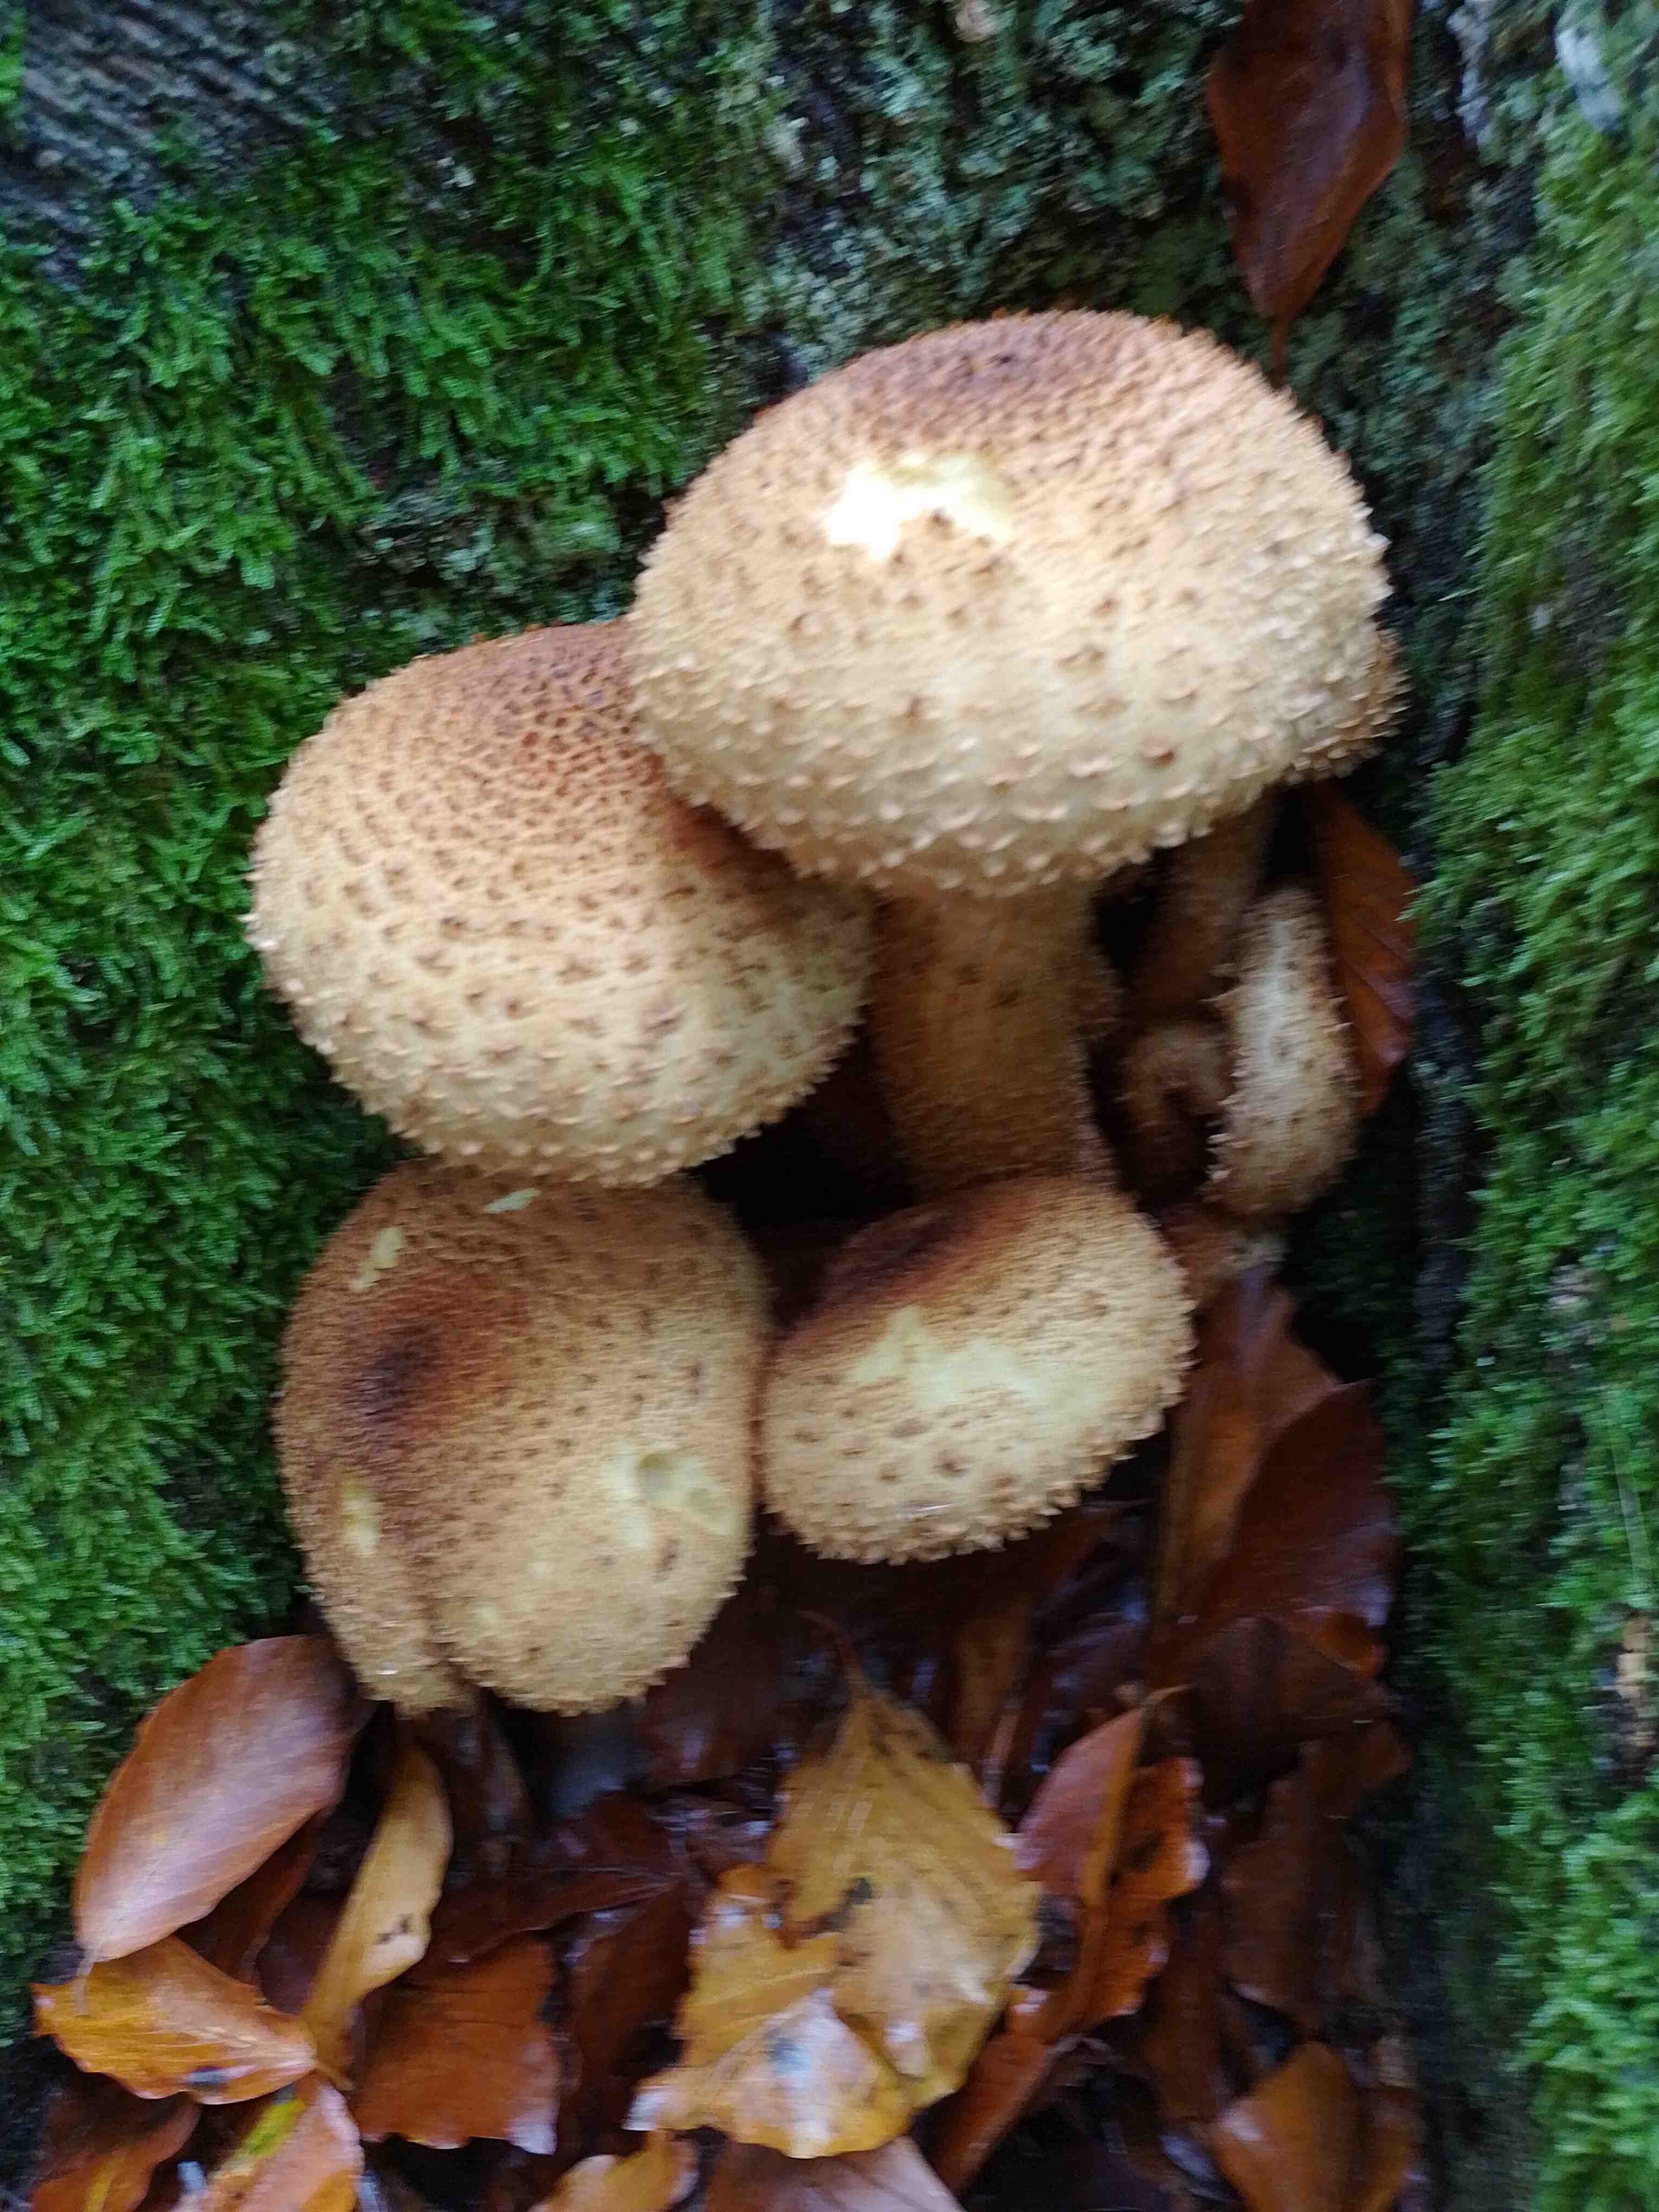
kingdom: Fungi
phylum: Basidiomycota
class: Agaricomycetes
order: Agaricales
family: Strophariaceae
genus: Pholiota
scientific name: Pholiota squarrosa
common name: krumskællet skælhat
